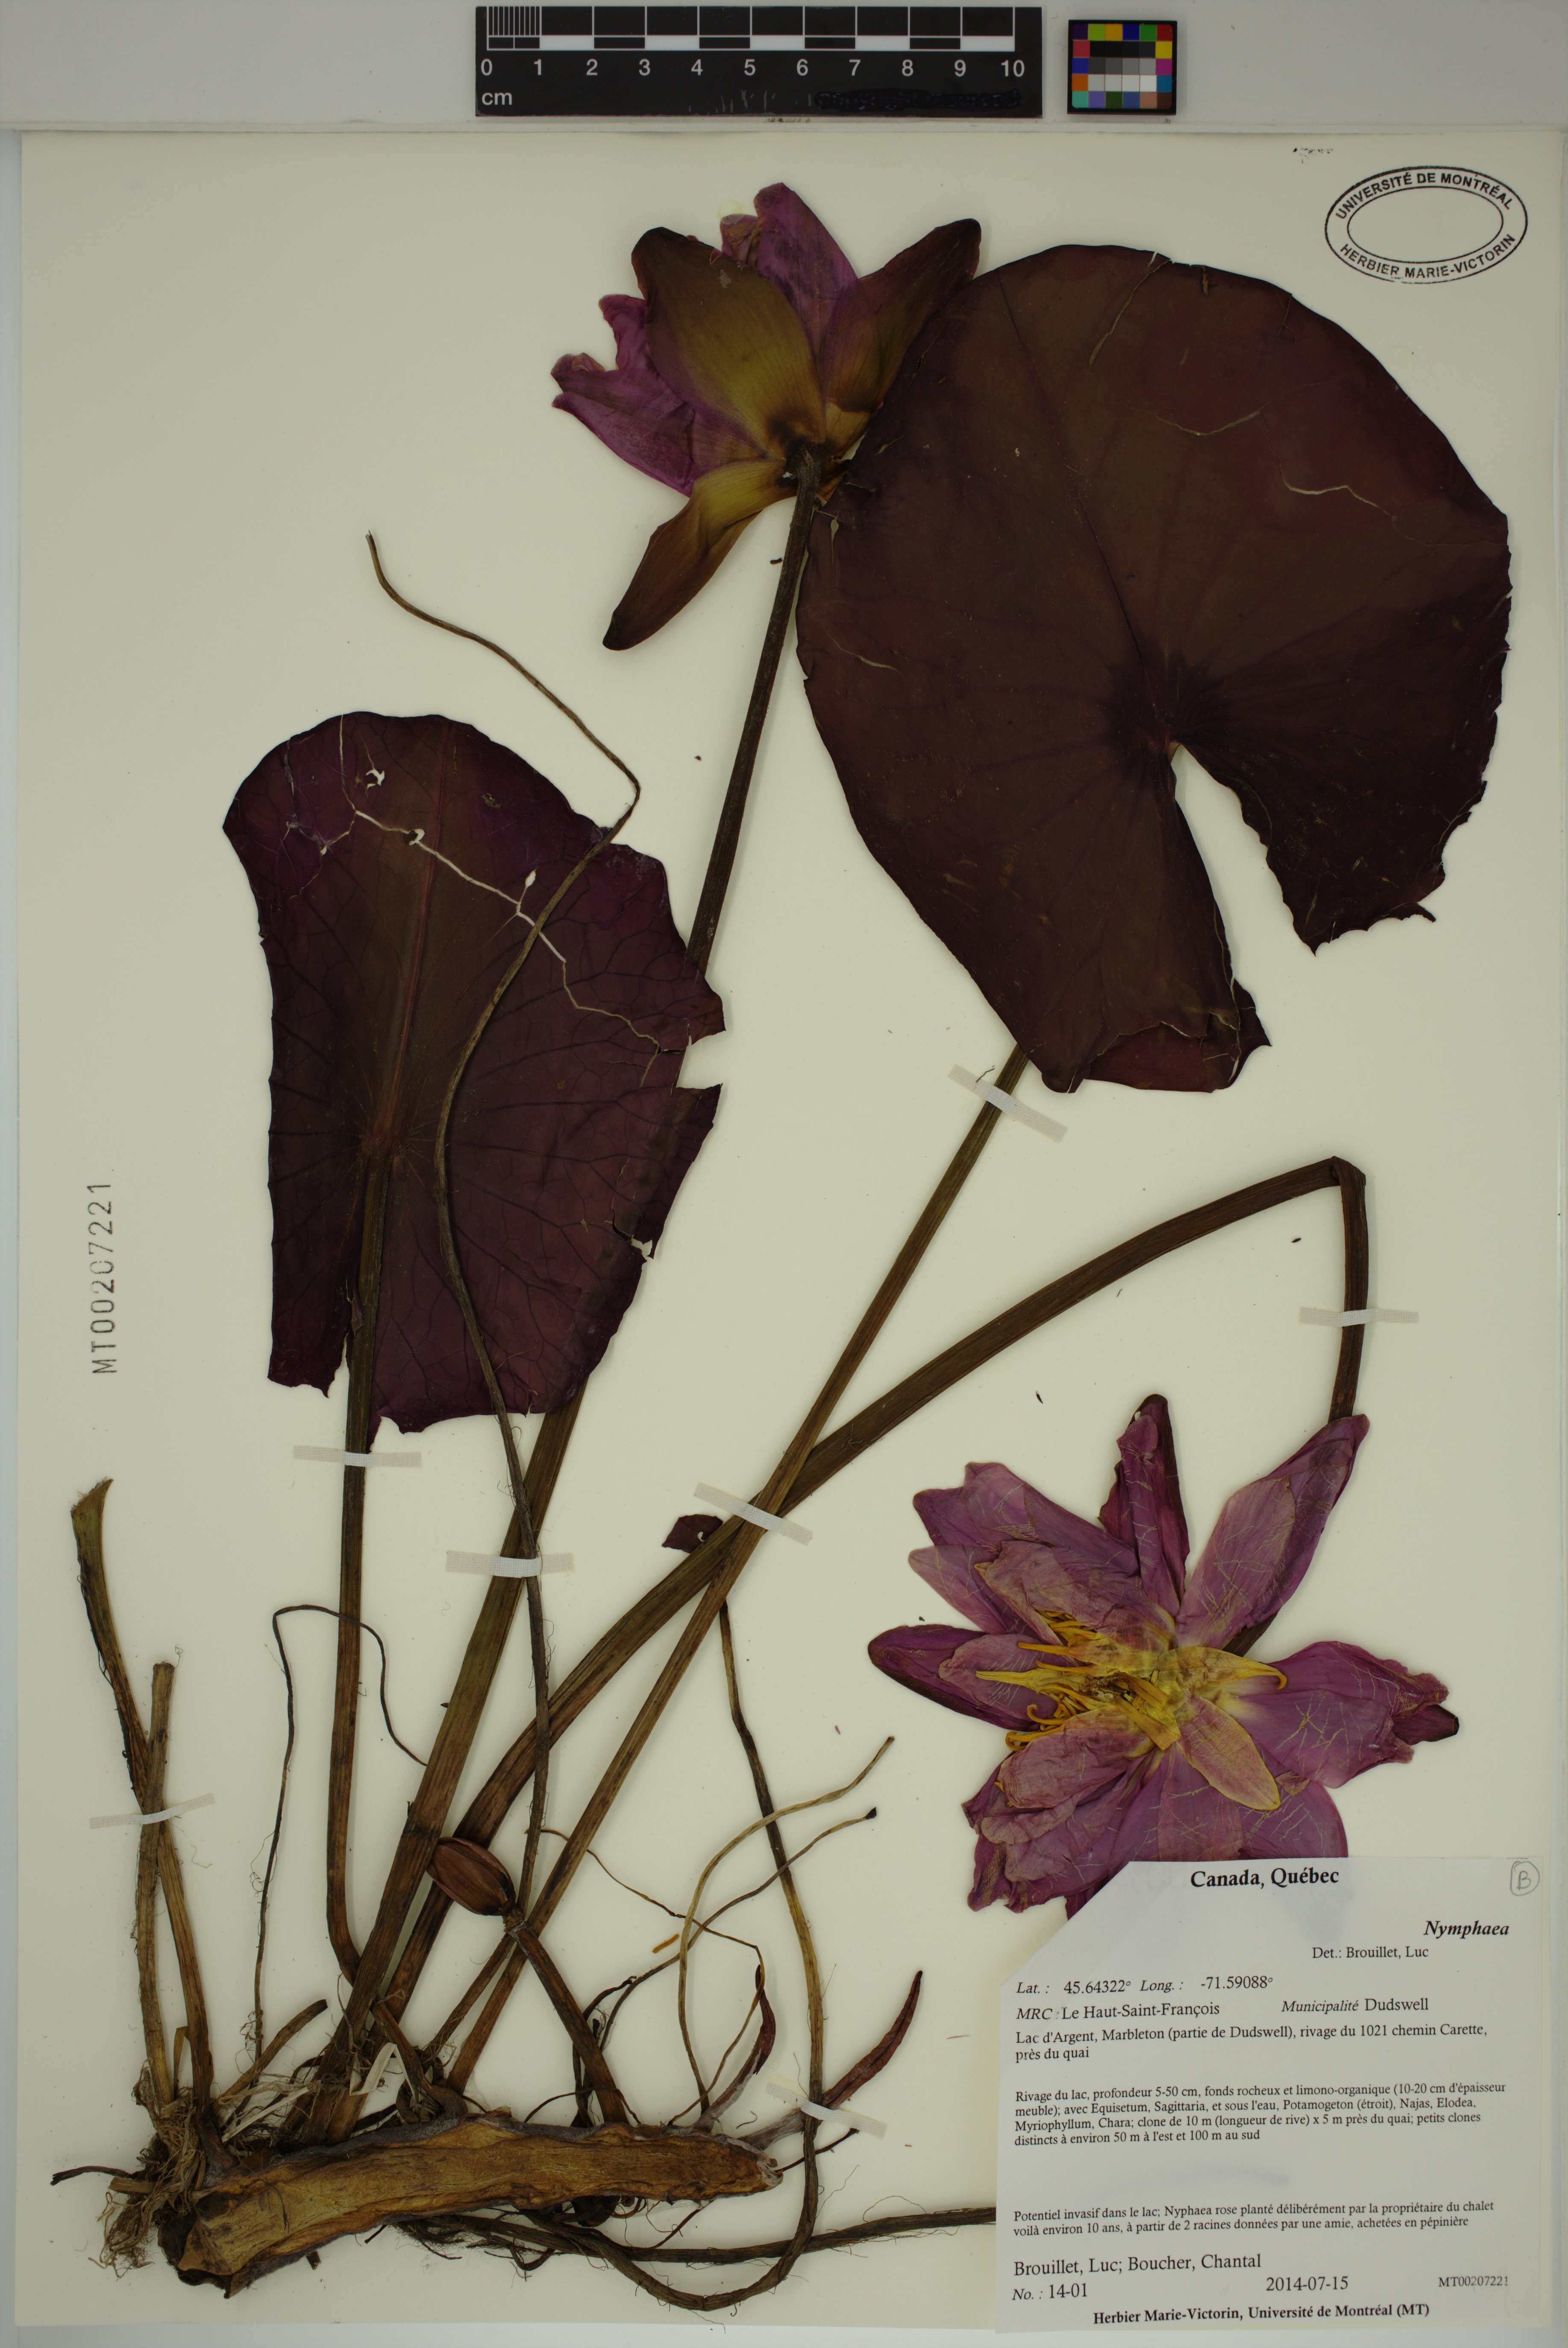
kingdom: Plantae
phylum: Tracheophyta
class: Magnoliopsida
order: Nymphaeales
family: Nymphaeaceae
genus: Nymphaea
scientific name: Nymphaea
